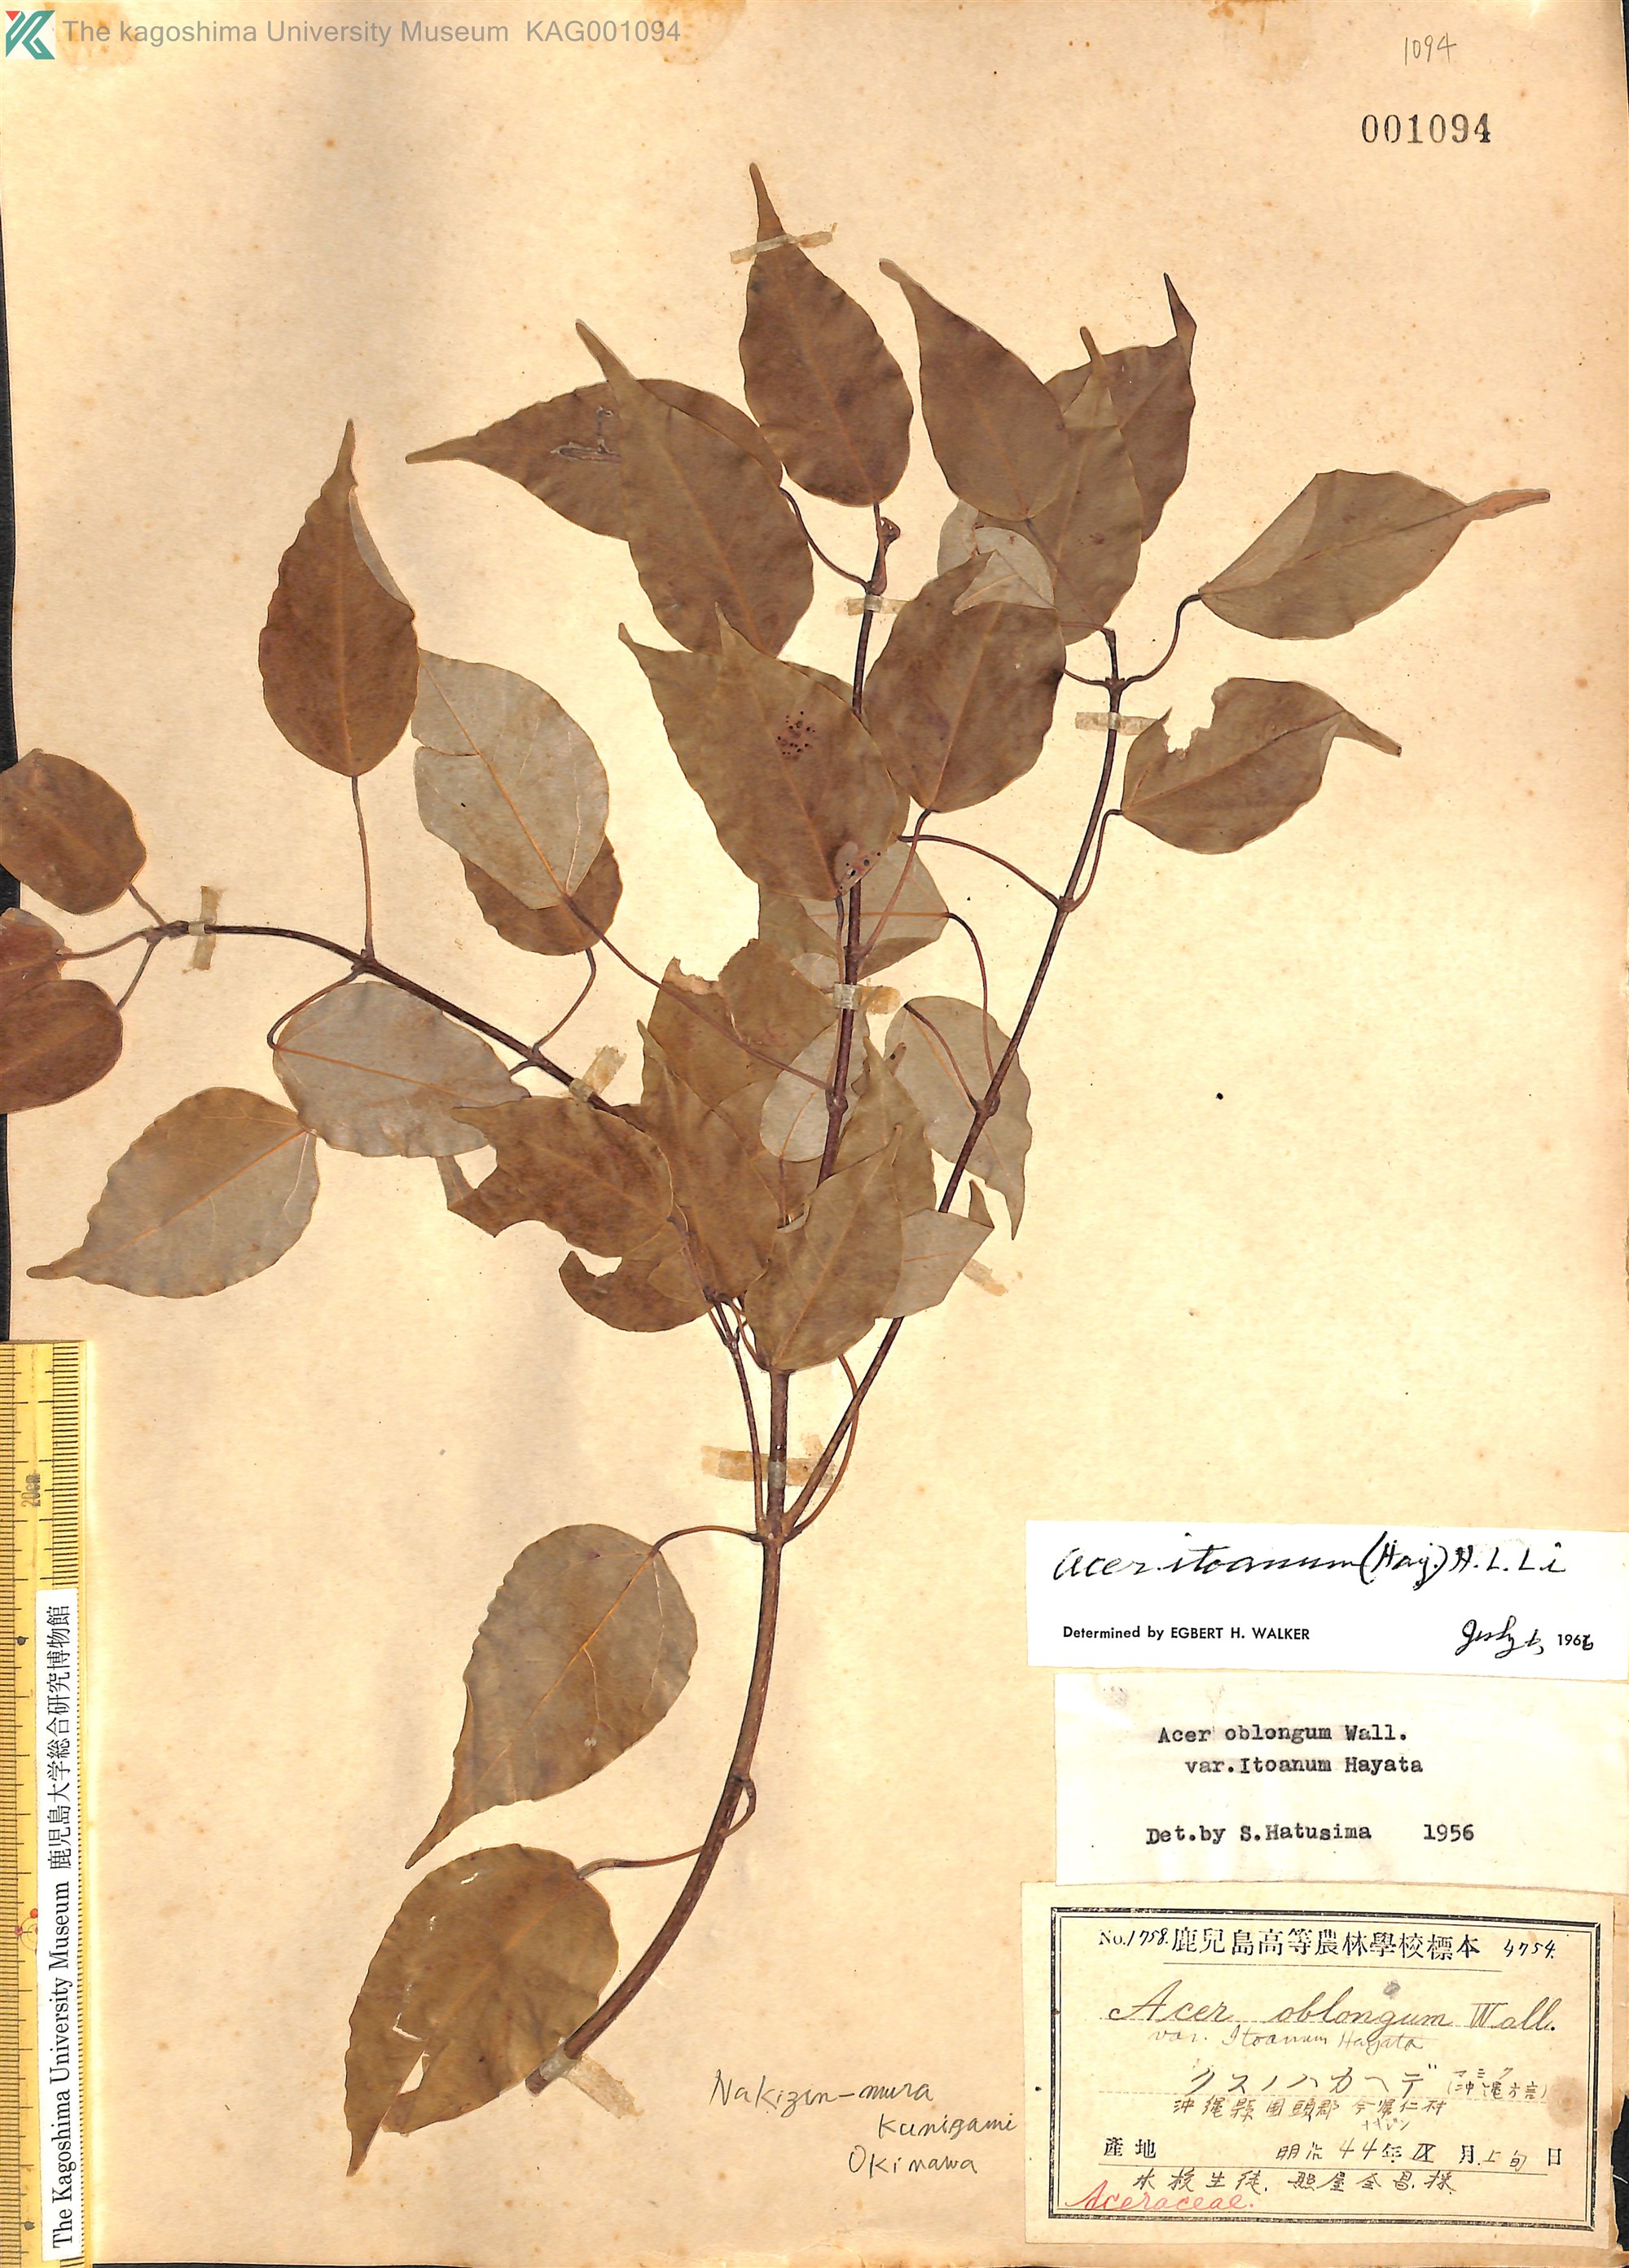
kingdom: Plantae
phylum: Tracheophyta
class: Magnoliopsida
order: Sapindales
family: Sapindaceae
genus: Acer
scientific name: Acer oblongum
